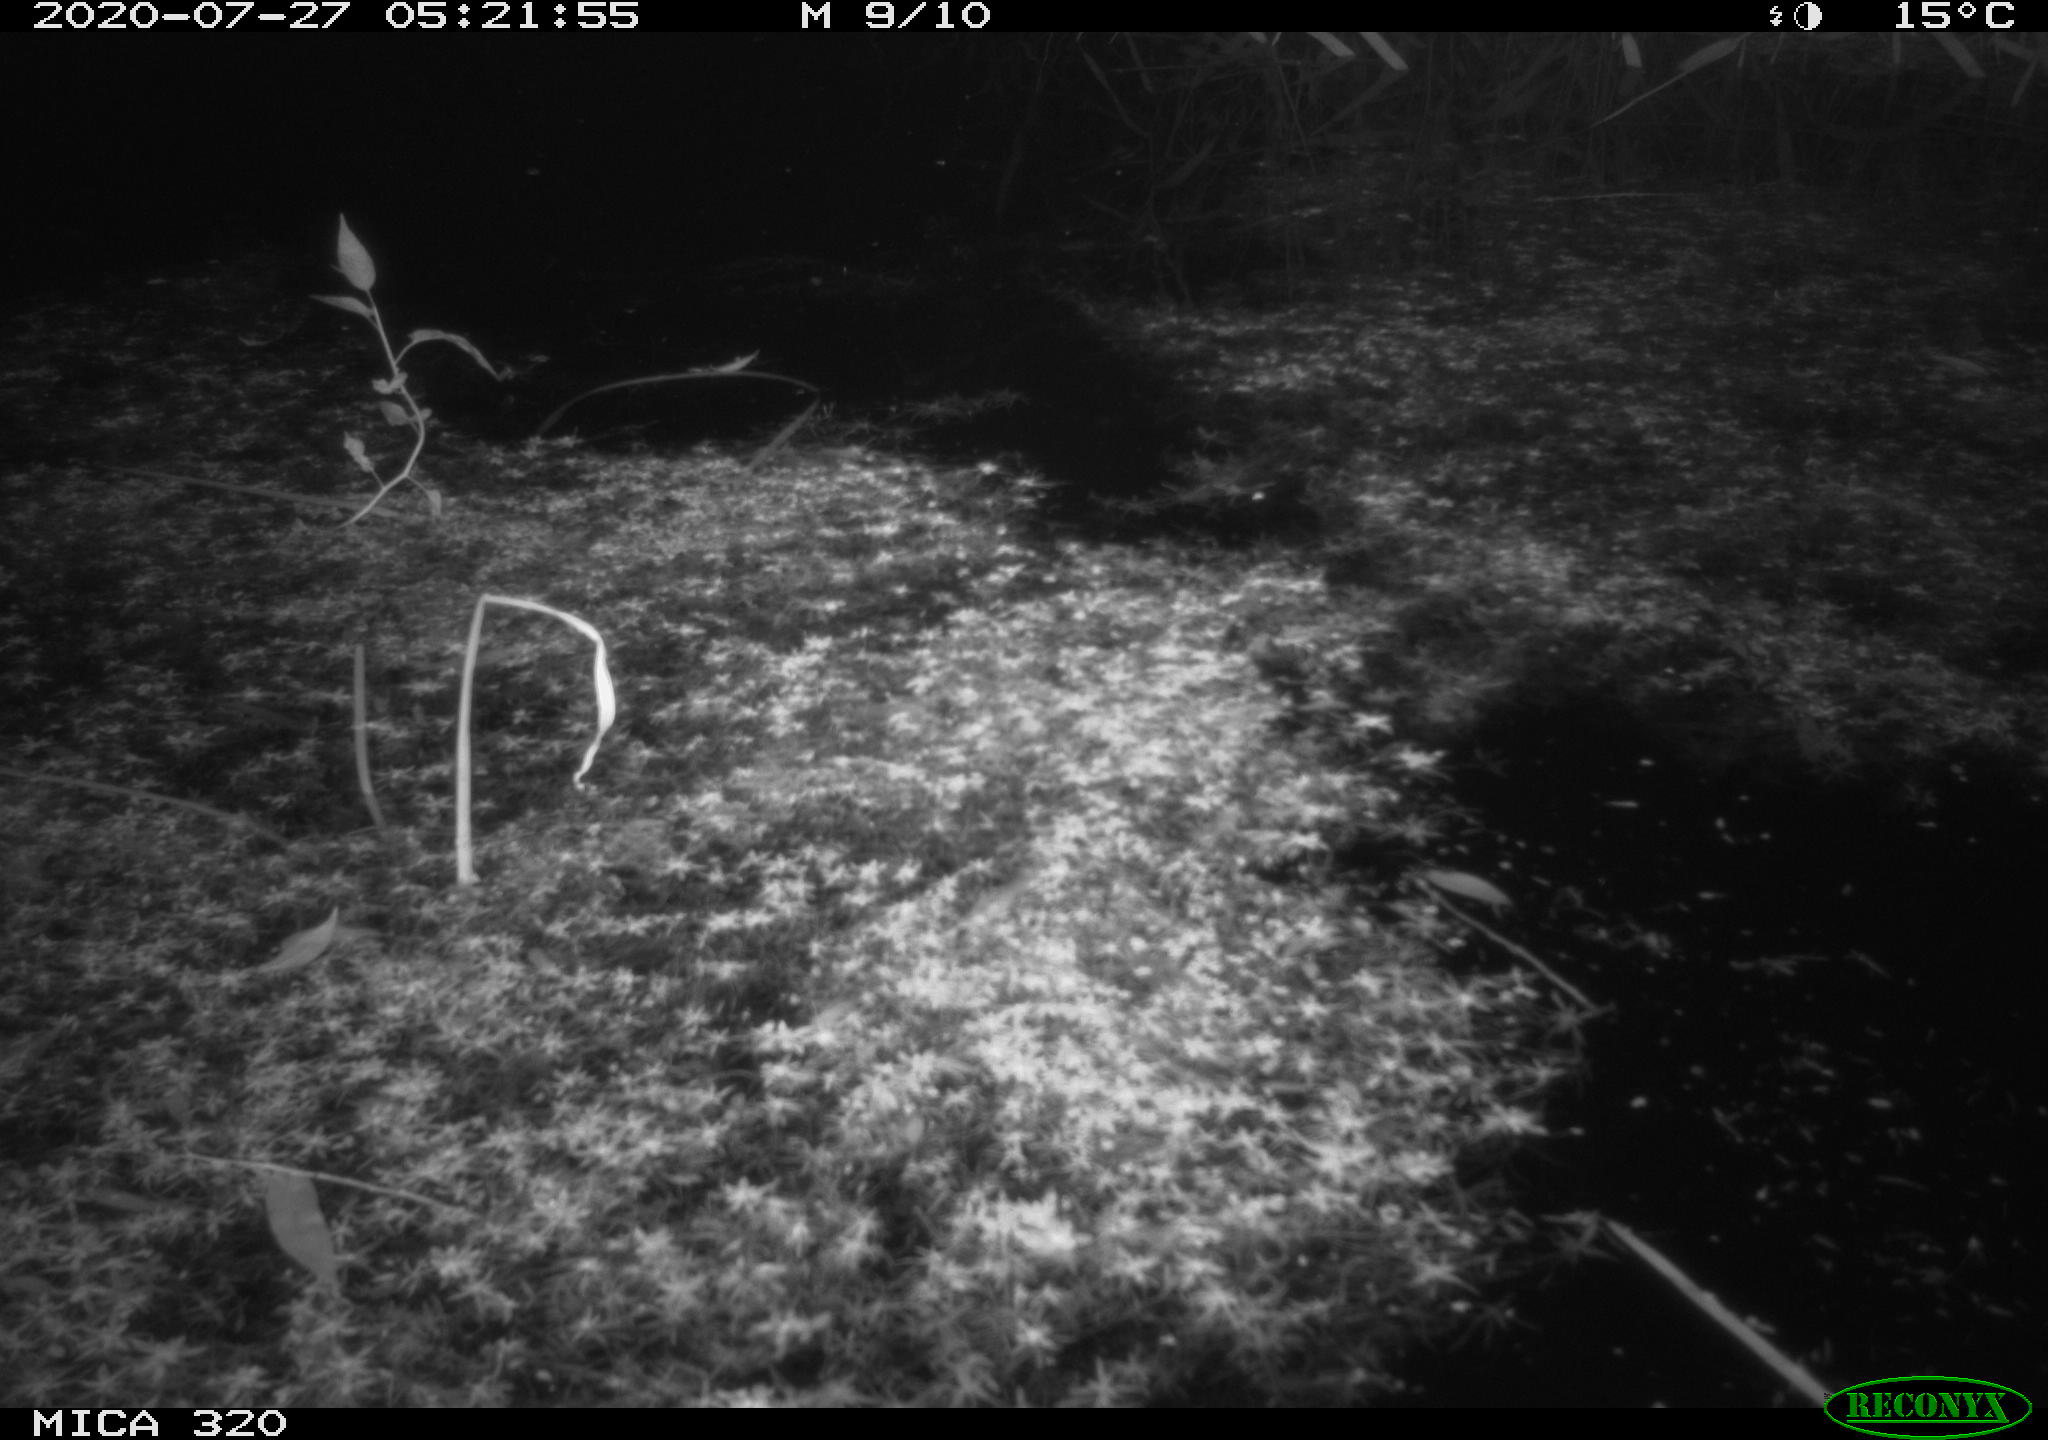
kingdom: Animalia
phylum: Chordata
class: Aves
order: Anseriformes
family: Anatidae
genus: Anas
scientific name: Anas platyrhynchos
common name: Mallard
